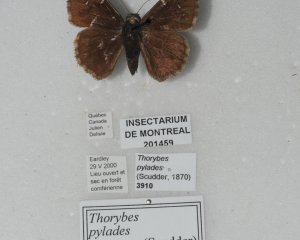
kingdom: Animalia
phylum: Arthropoda
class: Insecta
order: Lepidoptera
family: Hesperiidae
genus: Autochton
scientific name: Autochton
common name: Northern Cloudywing
